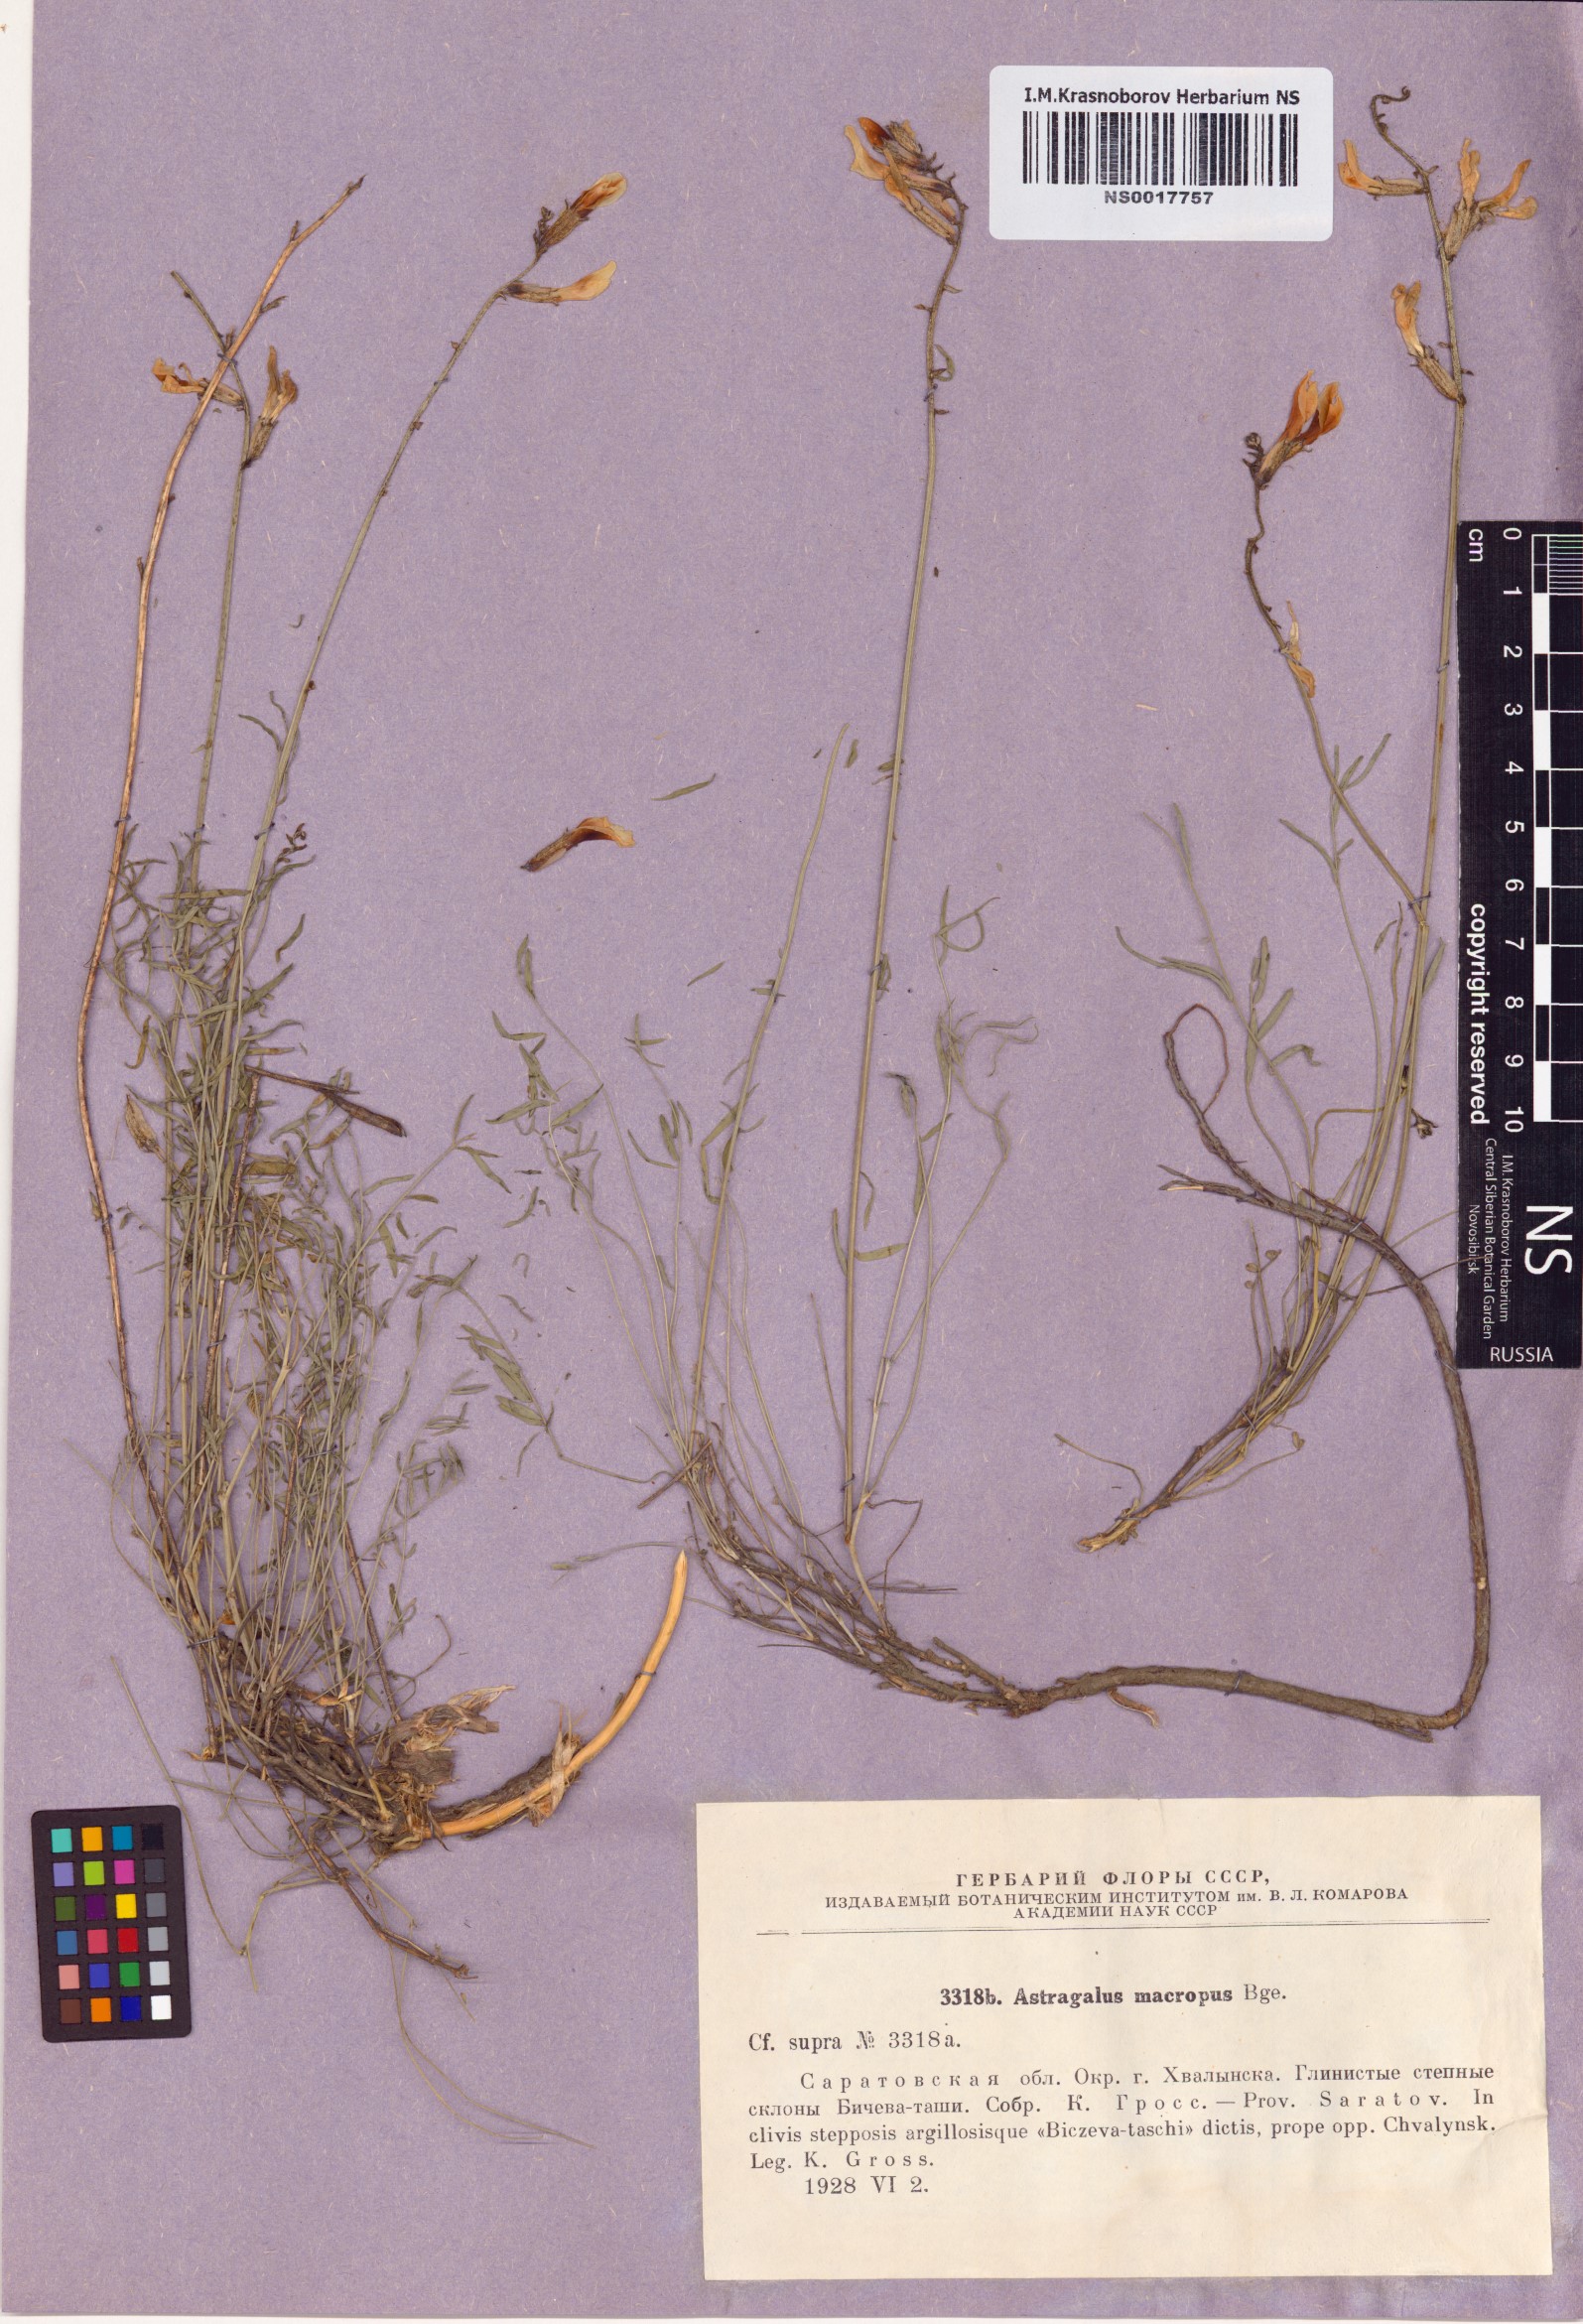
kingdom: Plantae
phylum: Tracheophyta
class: Magnoliopsida
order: Fabales
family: Fabaceae
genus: Astragalus
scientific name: Astragalus macropus
